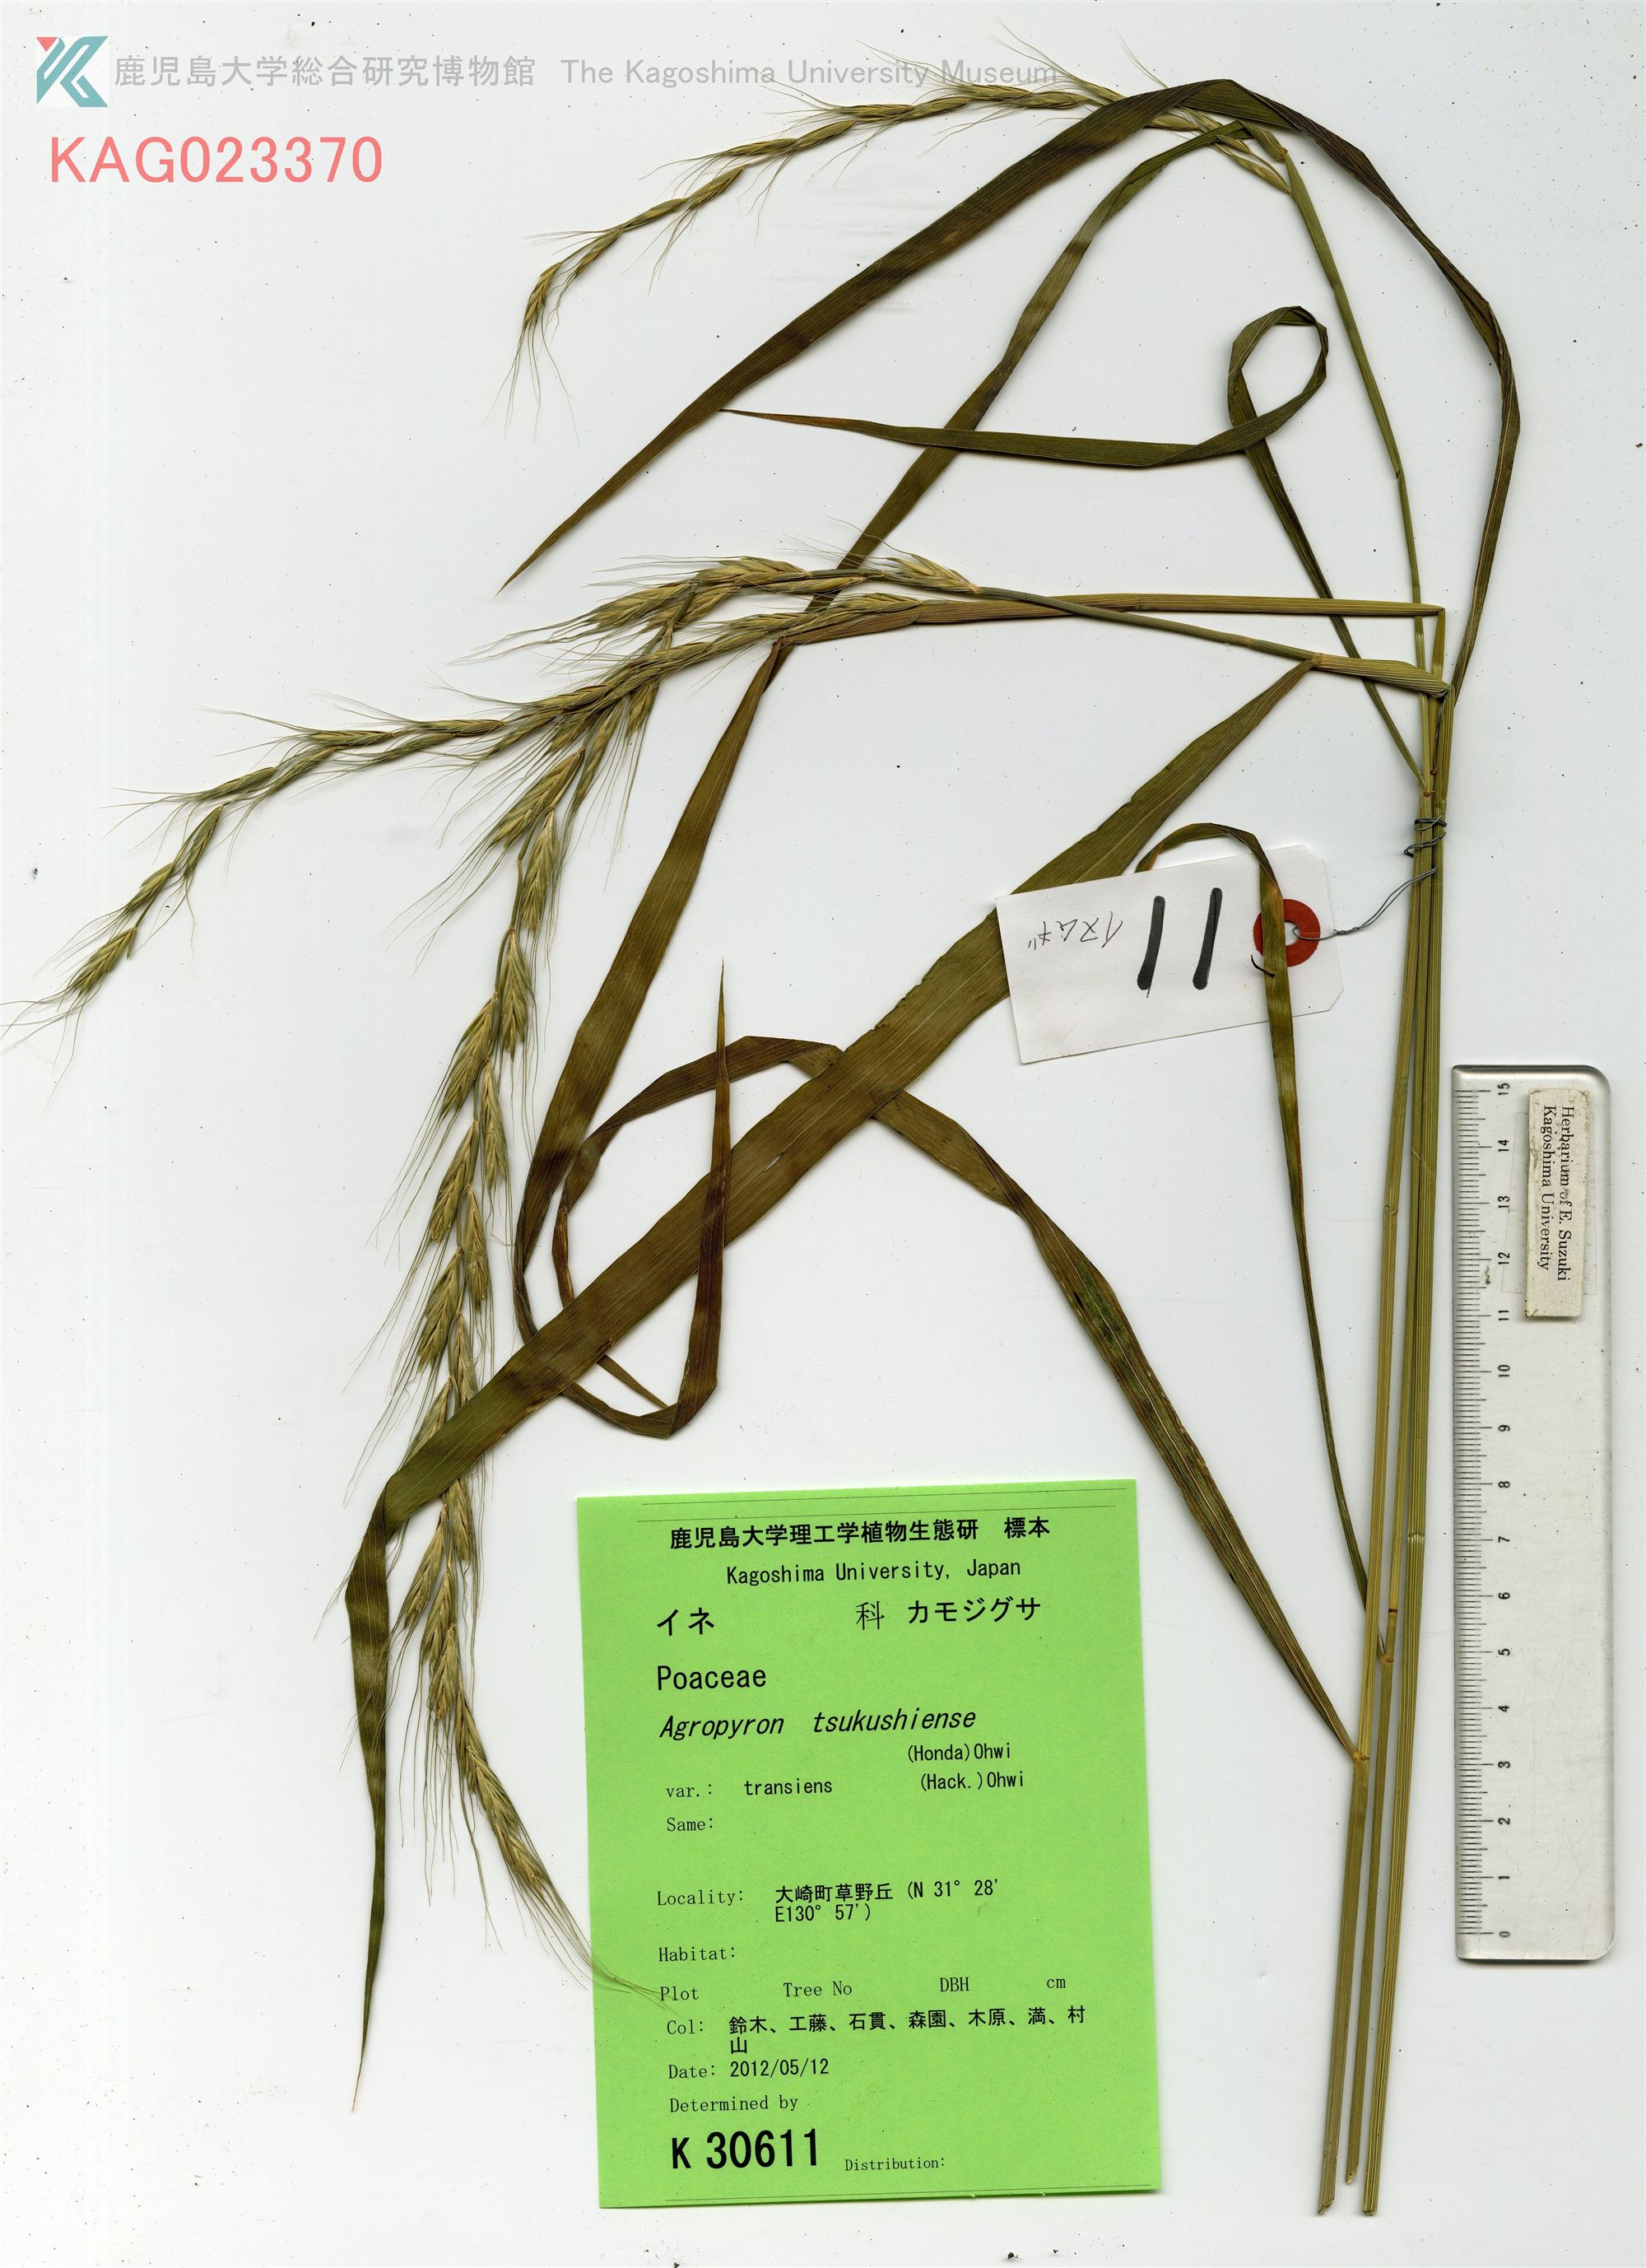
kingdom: Plantae
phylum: Tracheophyta
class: Liliopsida
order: Poales
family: Poaceae
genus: Elymus
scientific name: Elymus tsukushiensis
